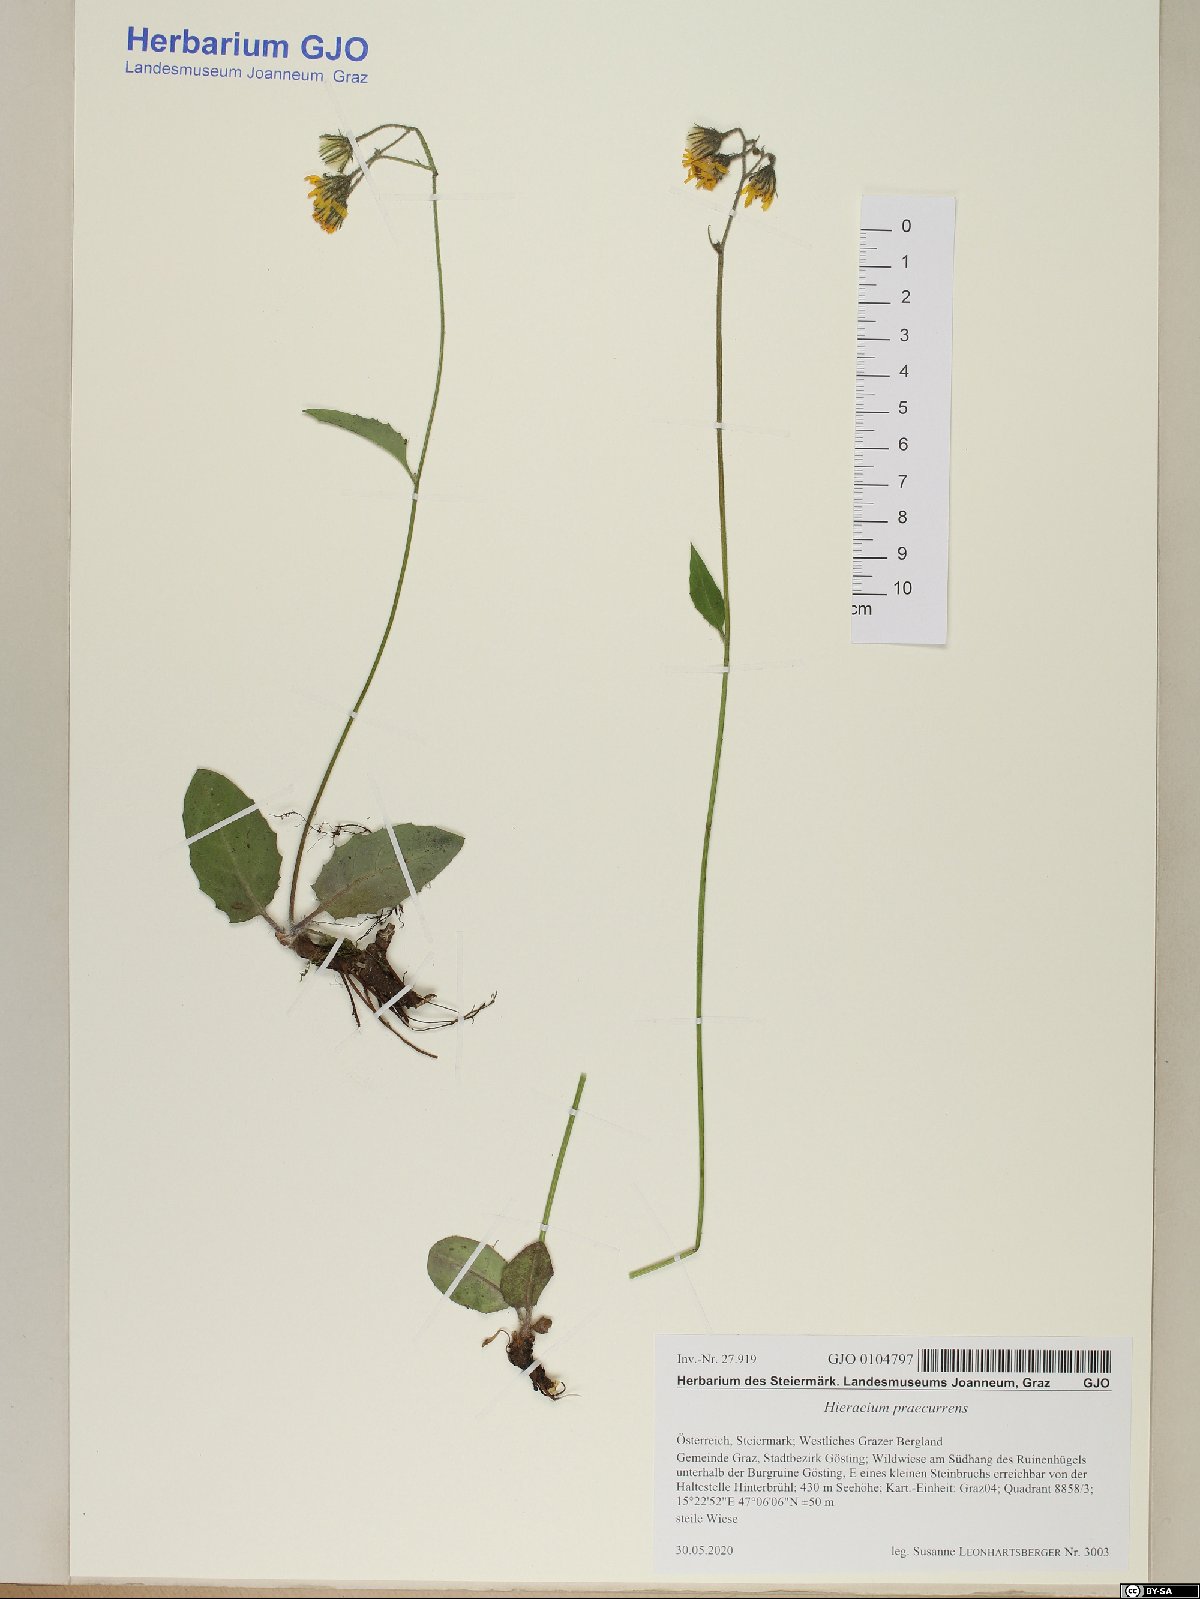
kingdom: Plantae
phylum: Tracheophyta
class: Magnoliopsida
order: Asterales
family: Asteraceae
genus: Hieracium
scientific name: Hieracium rotundatum
